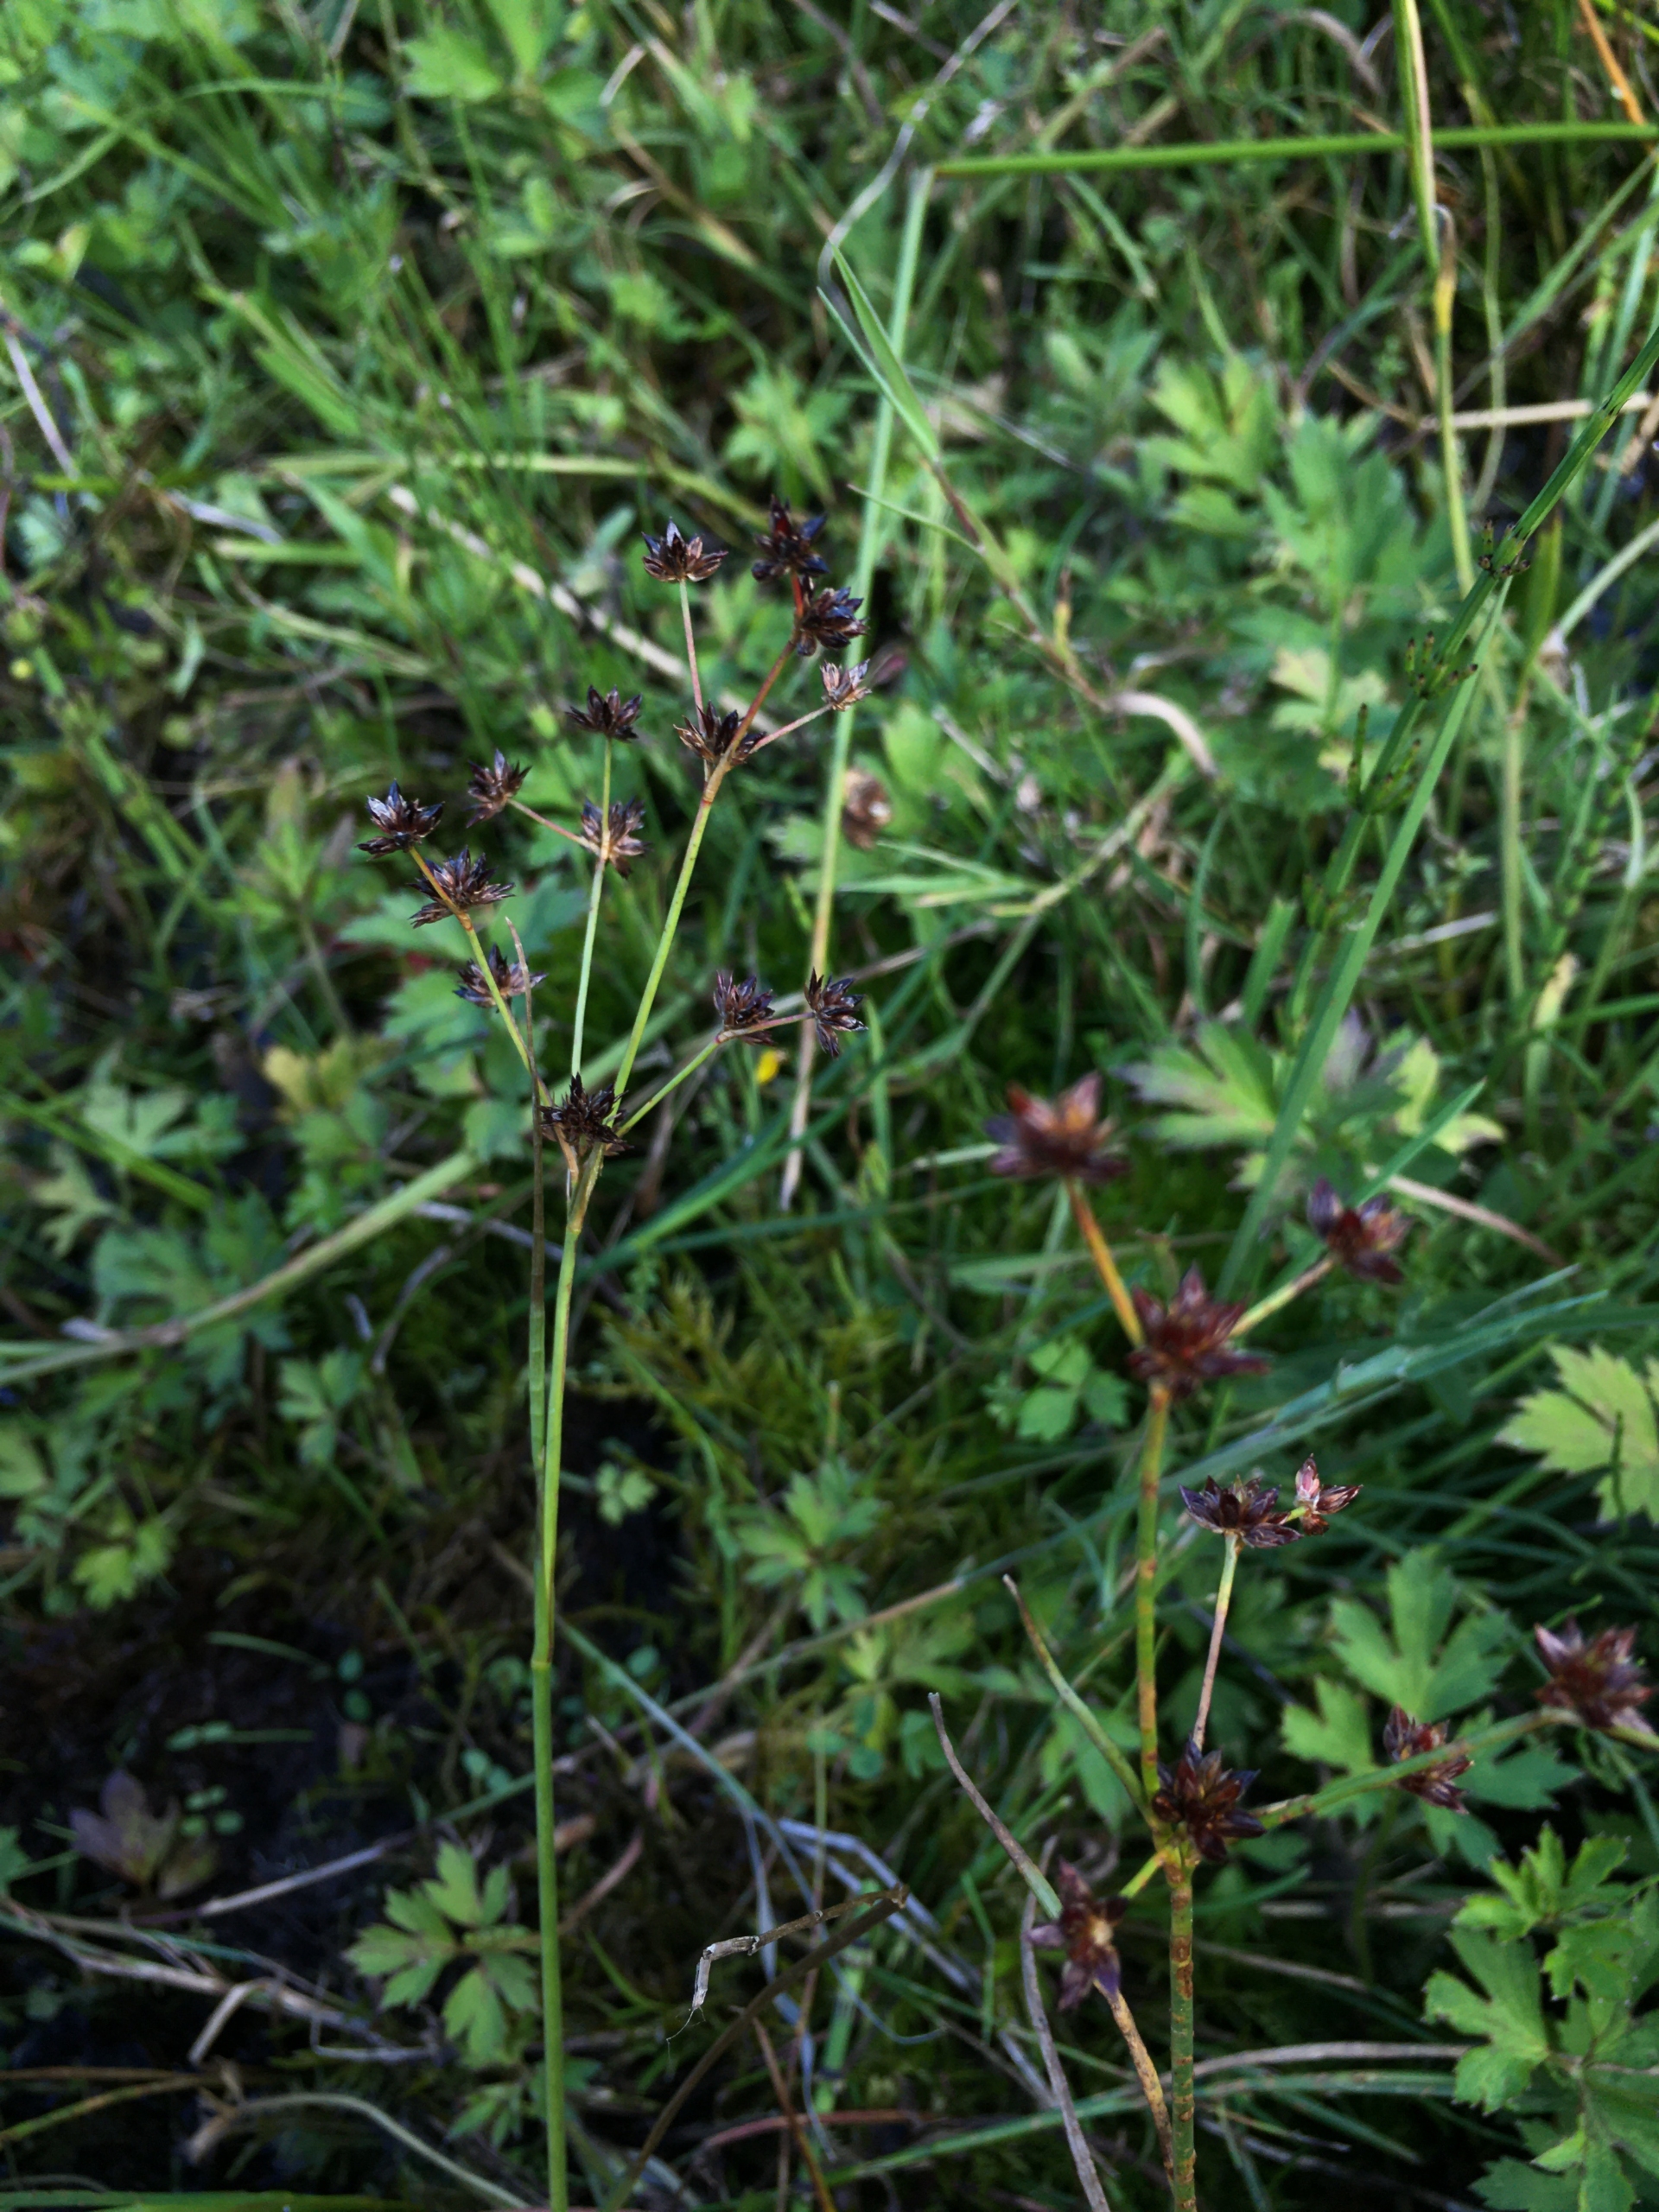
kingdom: Plantae
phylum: Tracheophyta
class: Liliopsida
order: Poales
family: Juncaceae
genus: Juncus
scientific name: Juncus articulatus
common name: Glanskapslet siv
